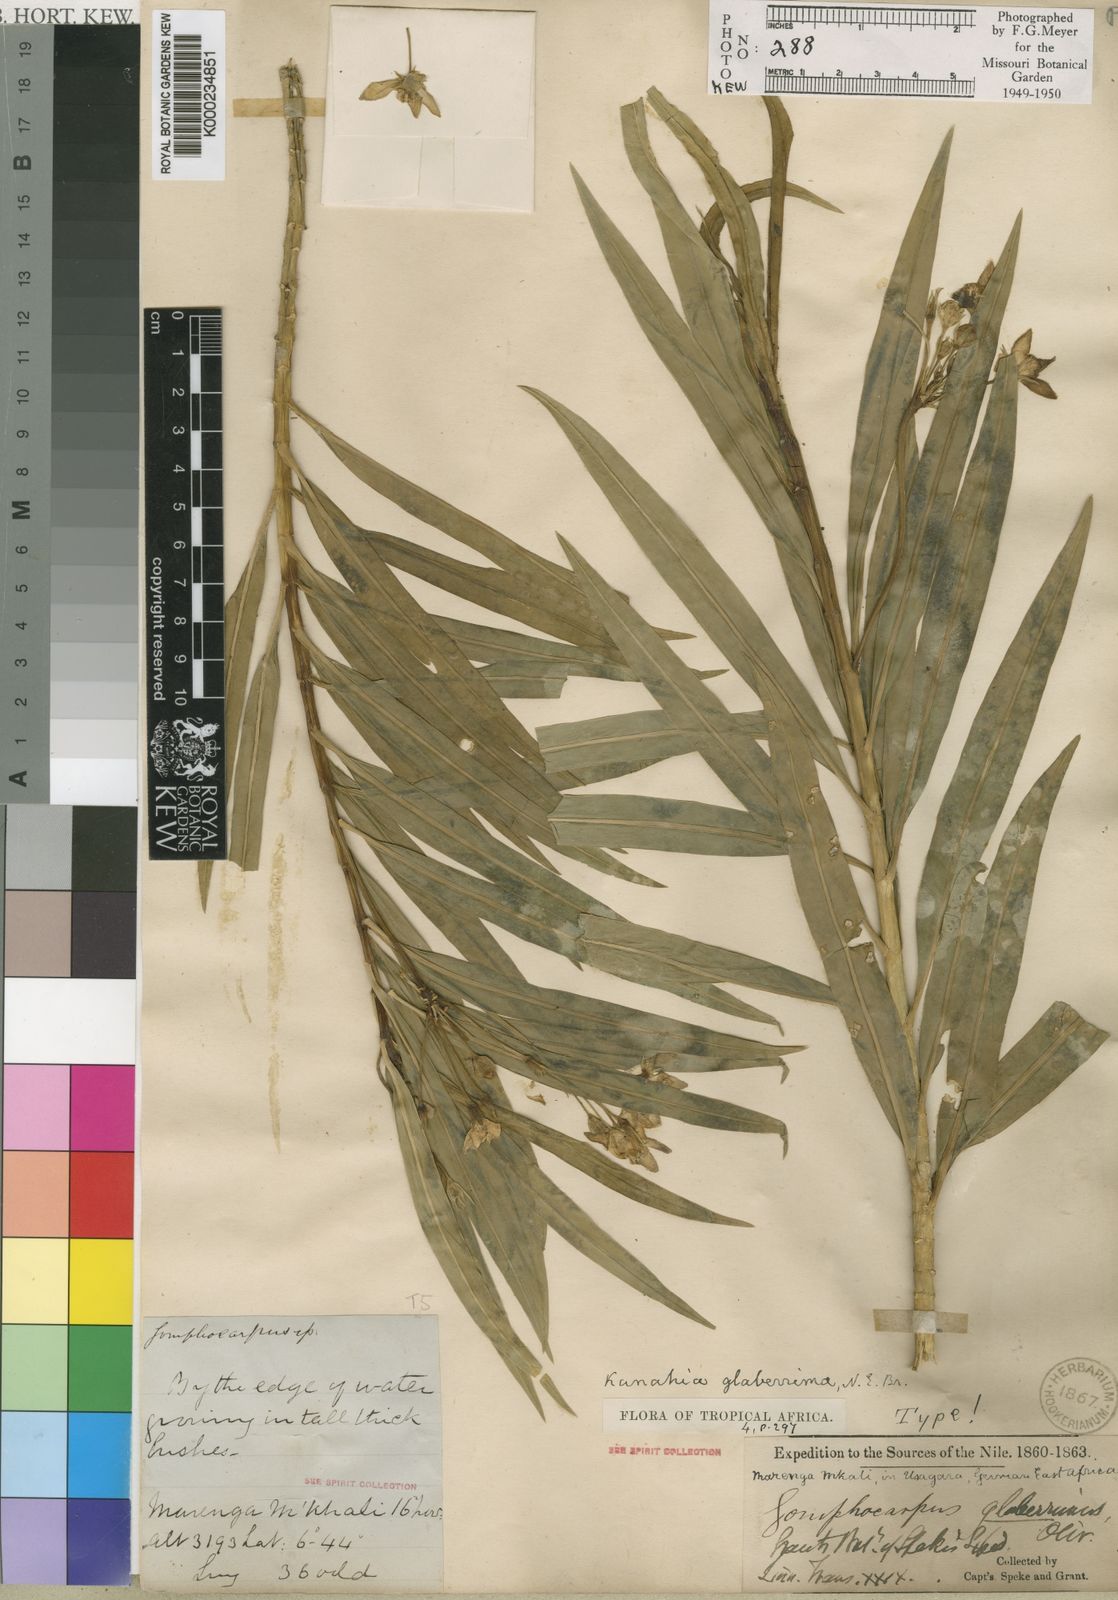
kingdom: Plantae
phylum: Tracheophyta
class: Magnoliopsida
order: Gentianales
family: Apocynaceae
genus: Kanahia
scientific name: Kanahia laniflora
